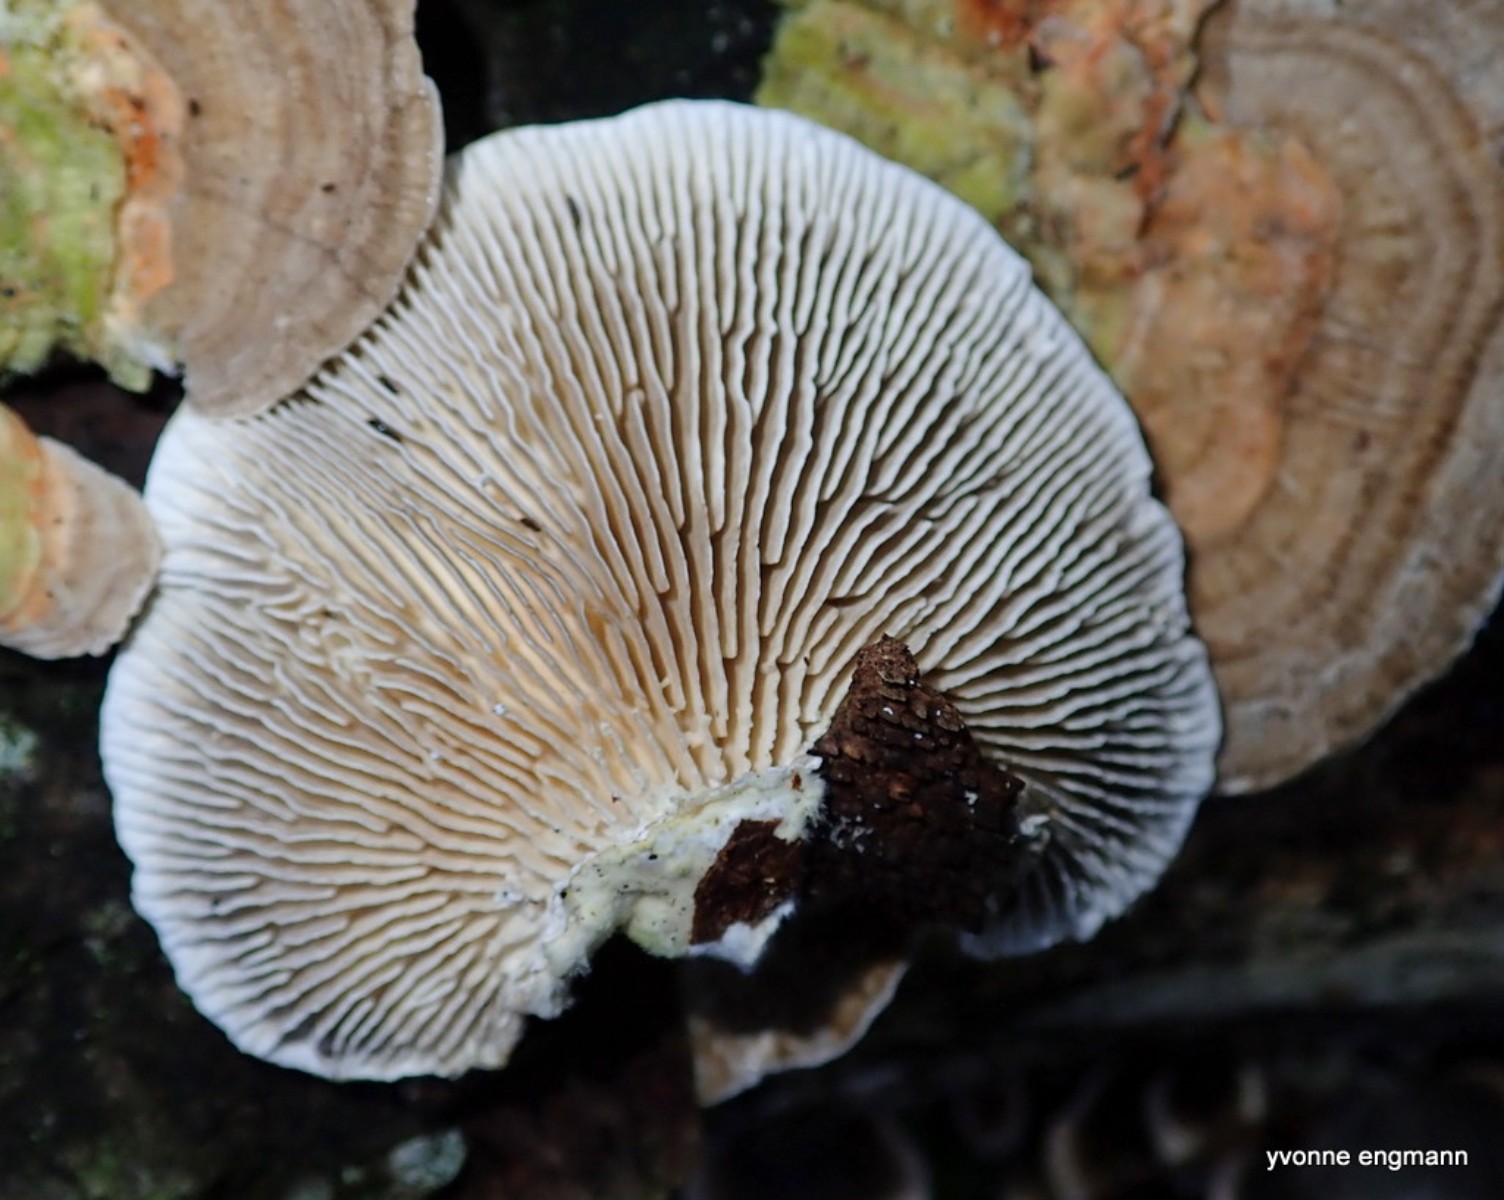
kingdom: Fungi
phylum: Basidiomycota
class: Agaricomycetes
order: Polyporales
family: Polyporaceae
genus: Lenzites
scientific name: Lenzites betulinus
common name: birke-læderporesvamp
